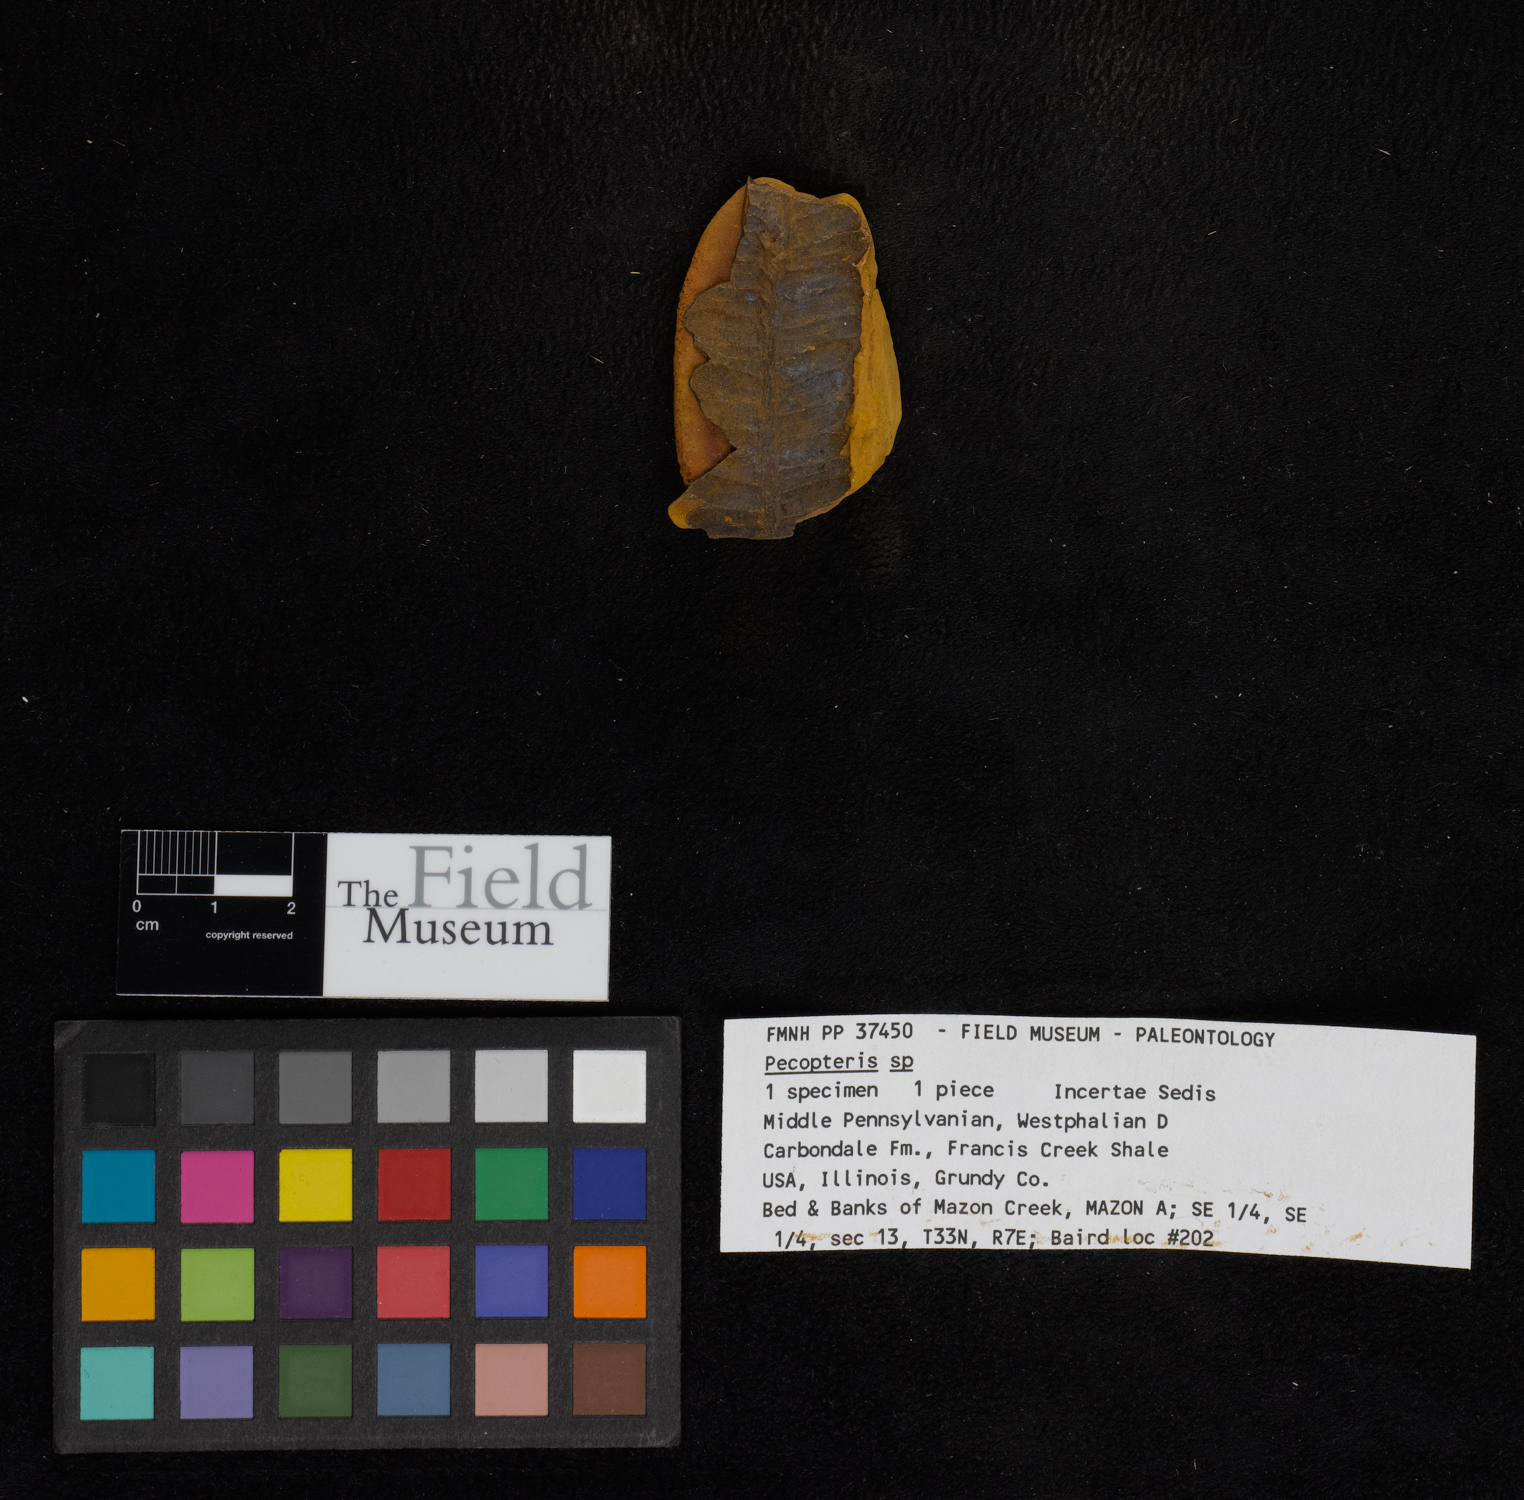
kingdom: Plantae
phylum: Tracheophyta
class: Polypodiopsida
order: Marattiales
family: Asterothecaceae
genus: Pecopteris
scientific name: Pecopteris
